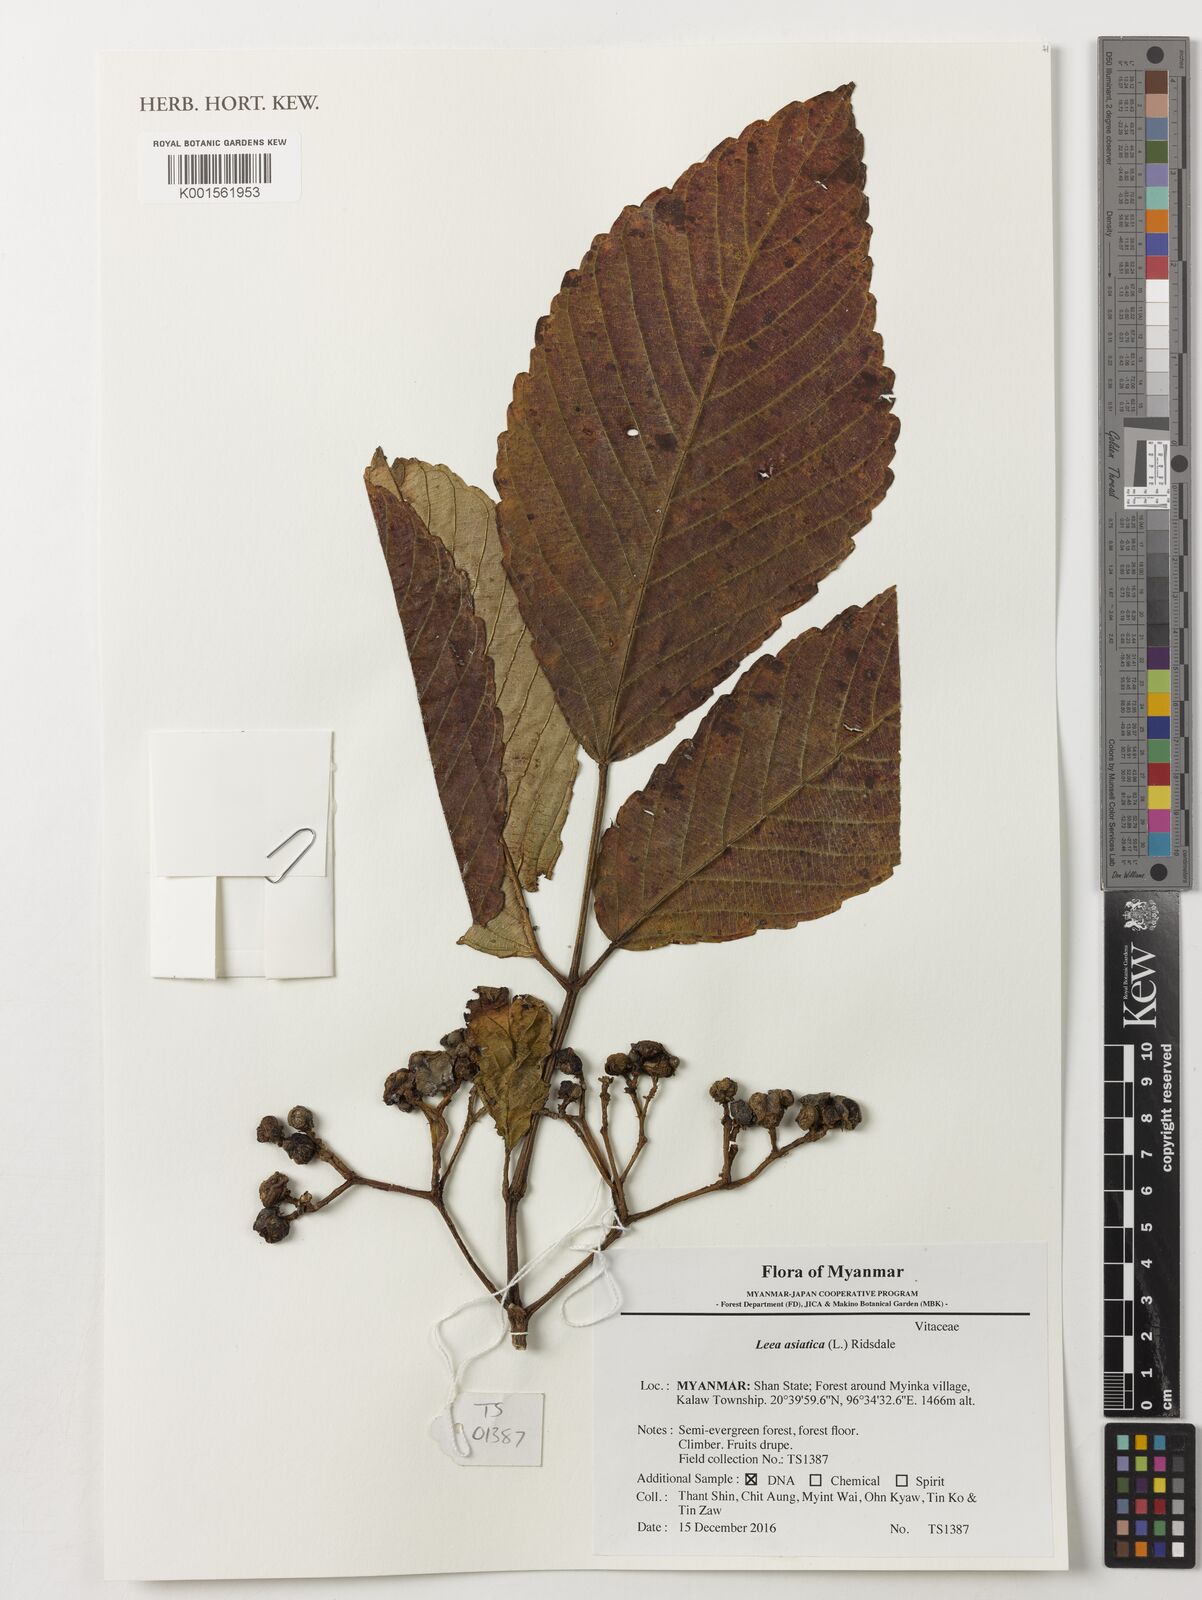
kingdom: Plantae
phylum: Tracheophyta
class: Magnoliopsida
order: Vitales
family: Vitaceae
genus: Leea
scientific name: Leea asiatica
